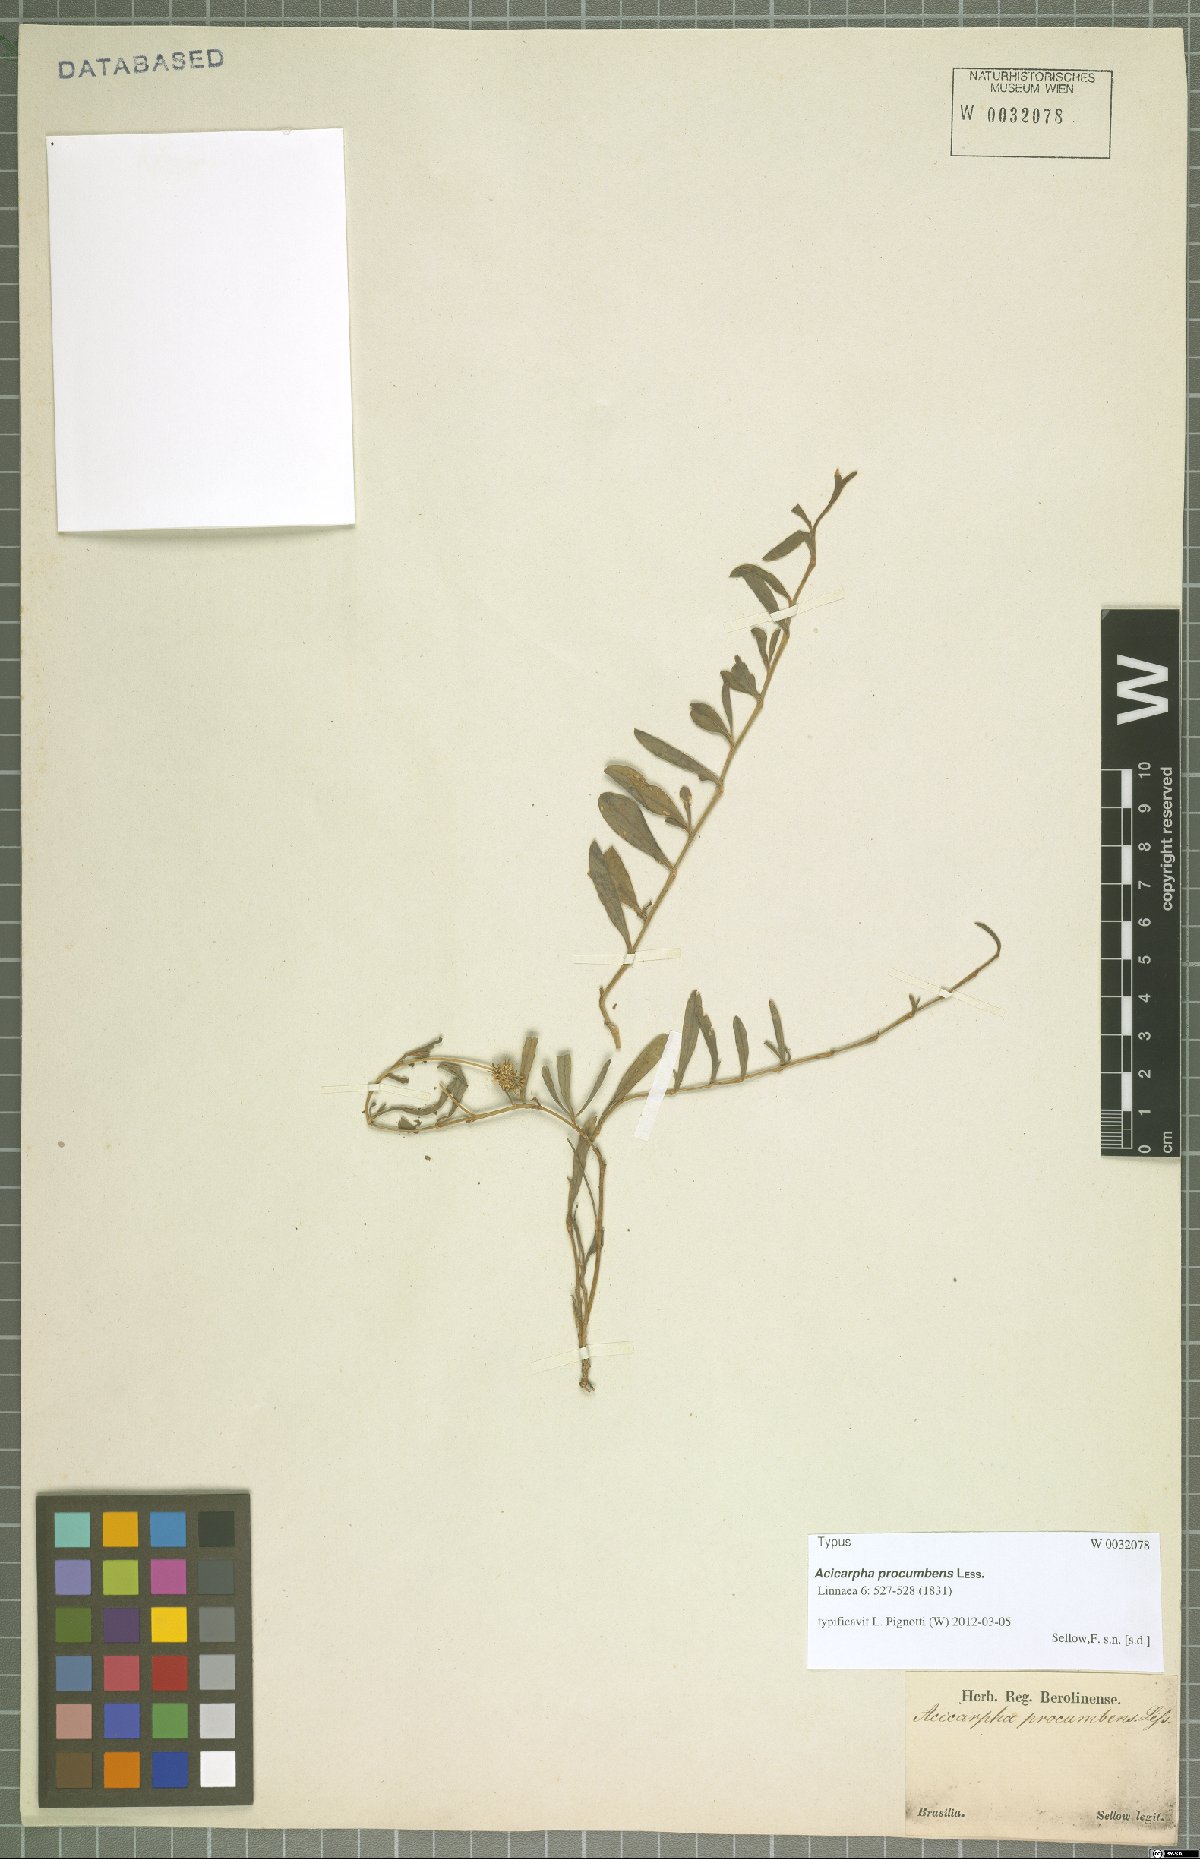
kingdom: Plantae
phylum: Tracheophyta
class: Magnoliopsida
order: Asterales
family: Calyceraceae
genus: Acicarpha
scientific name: Acicarpha procumbens
